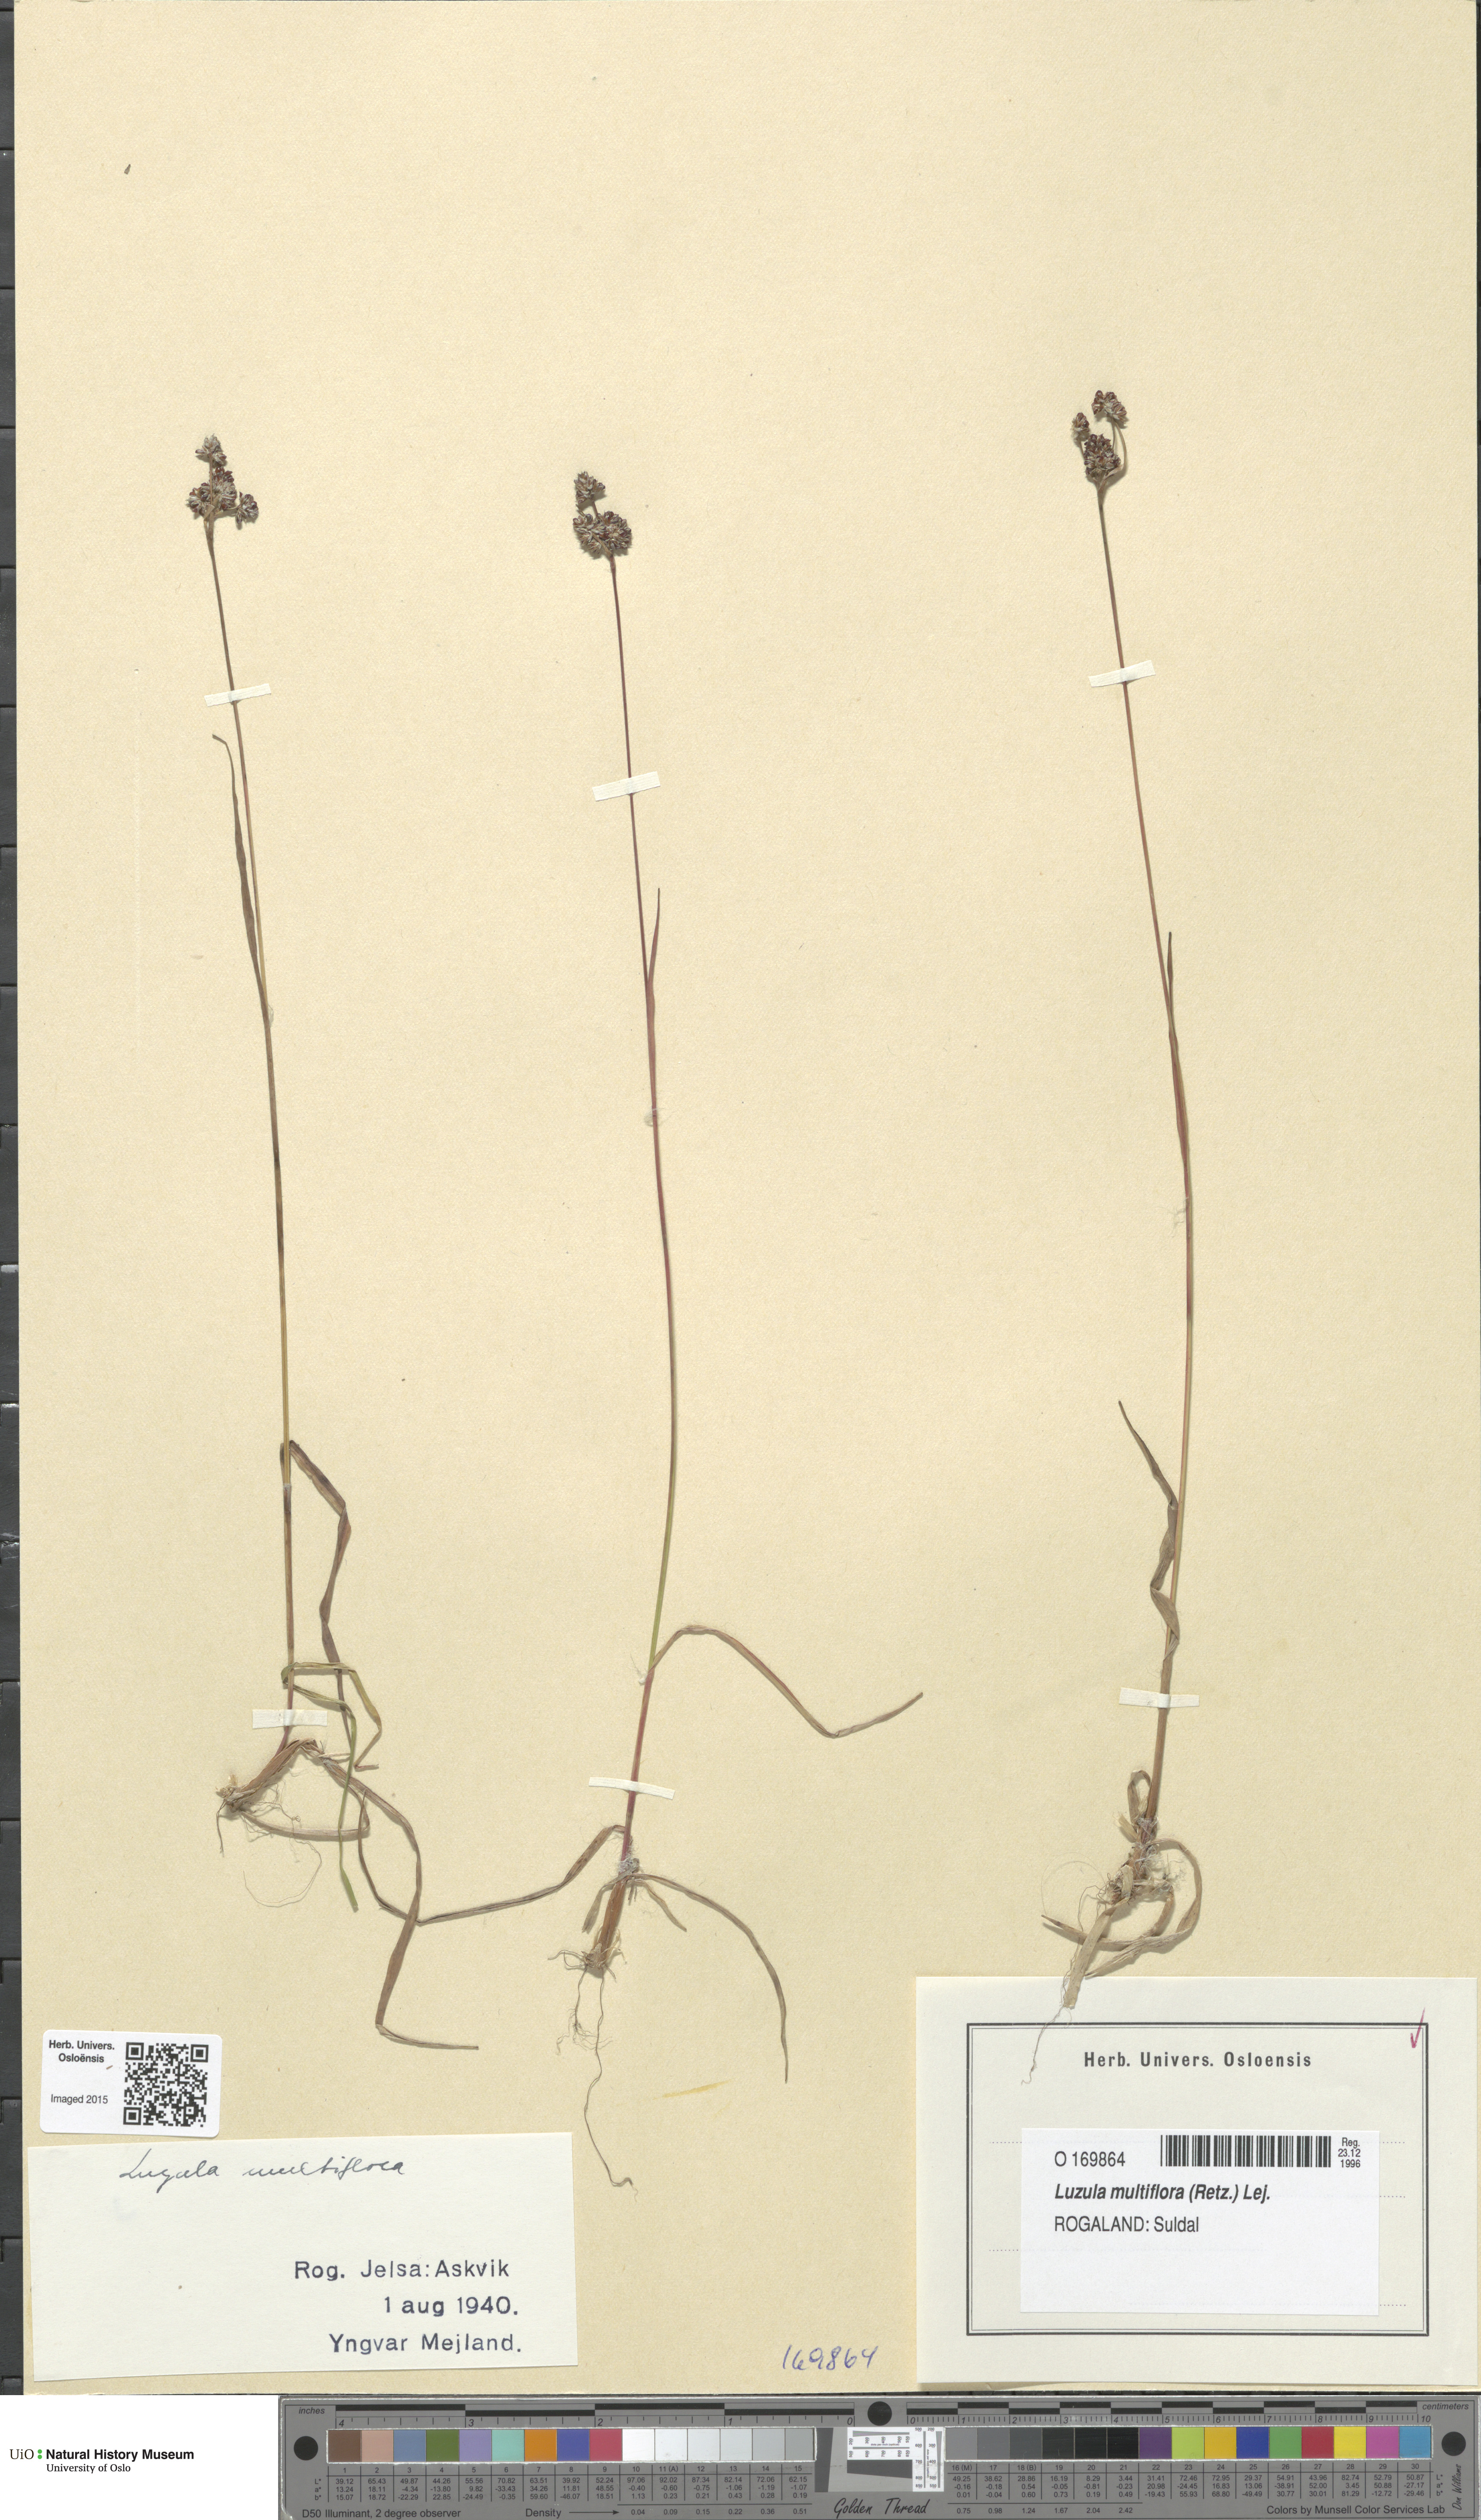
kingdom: Plantae
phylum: Tracheophyta
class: Liliopsida
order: Poales
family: Juncaceae
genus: Luzula
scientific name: Luzula multiflora
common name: Heath wood-rush
